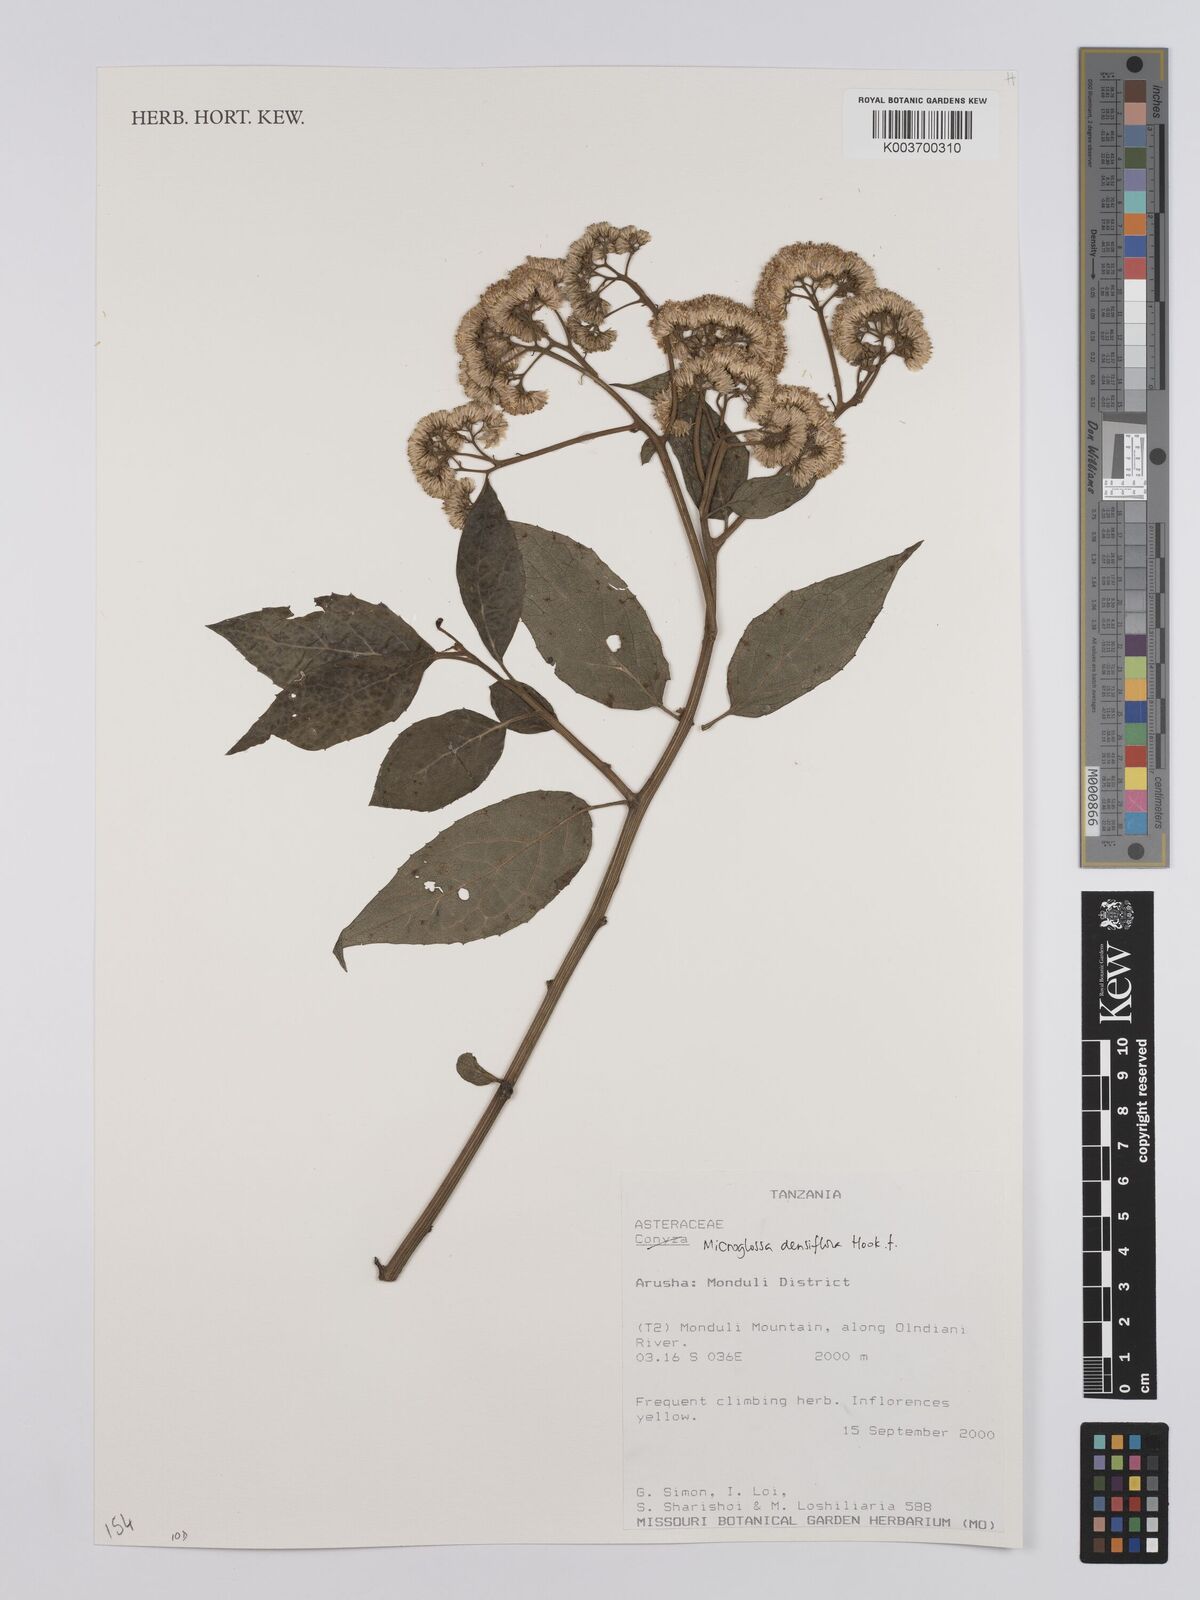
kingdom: Plantae
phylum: Tracheophyta
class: Magnoliopsida
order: Asterales
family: Asteraceae
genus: Microglossa
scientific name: Microglossa densiflora
